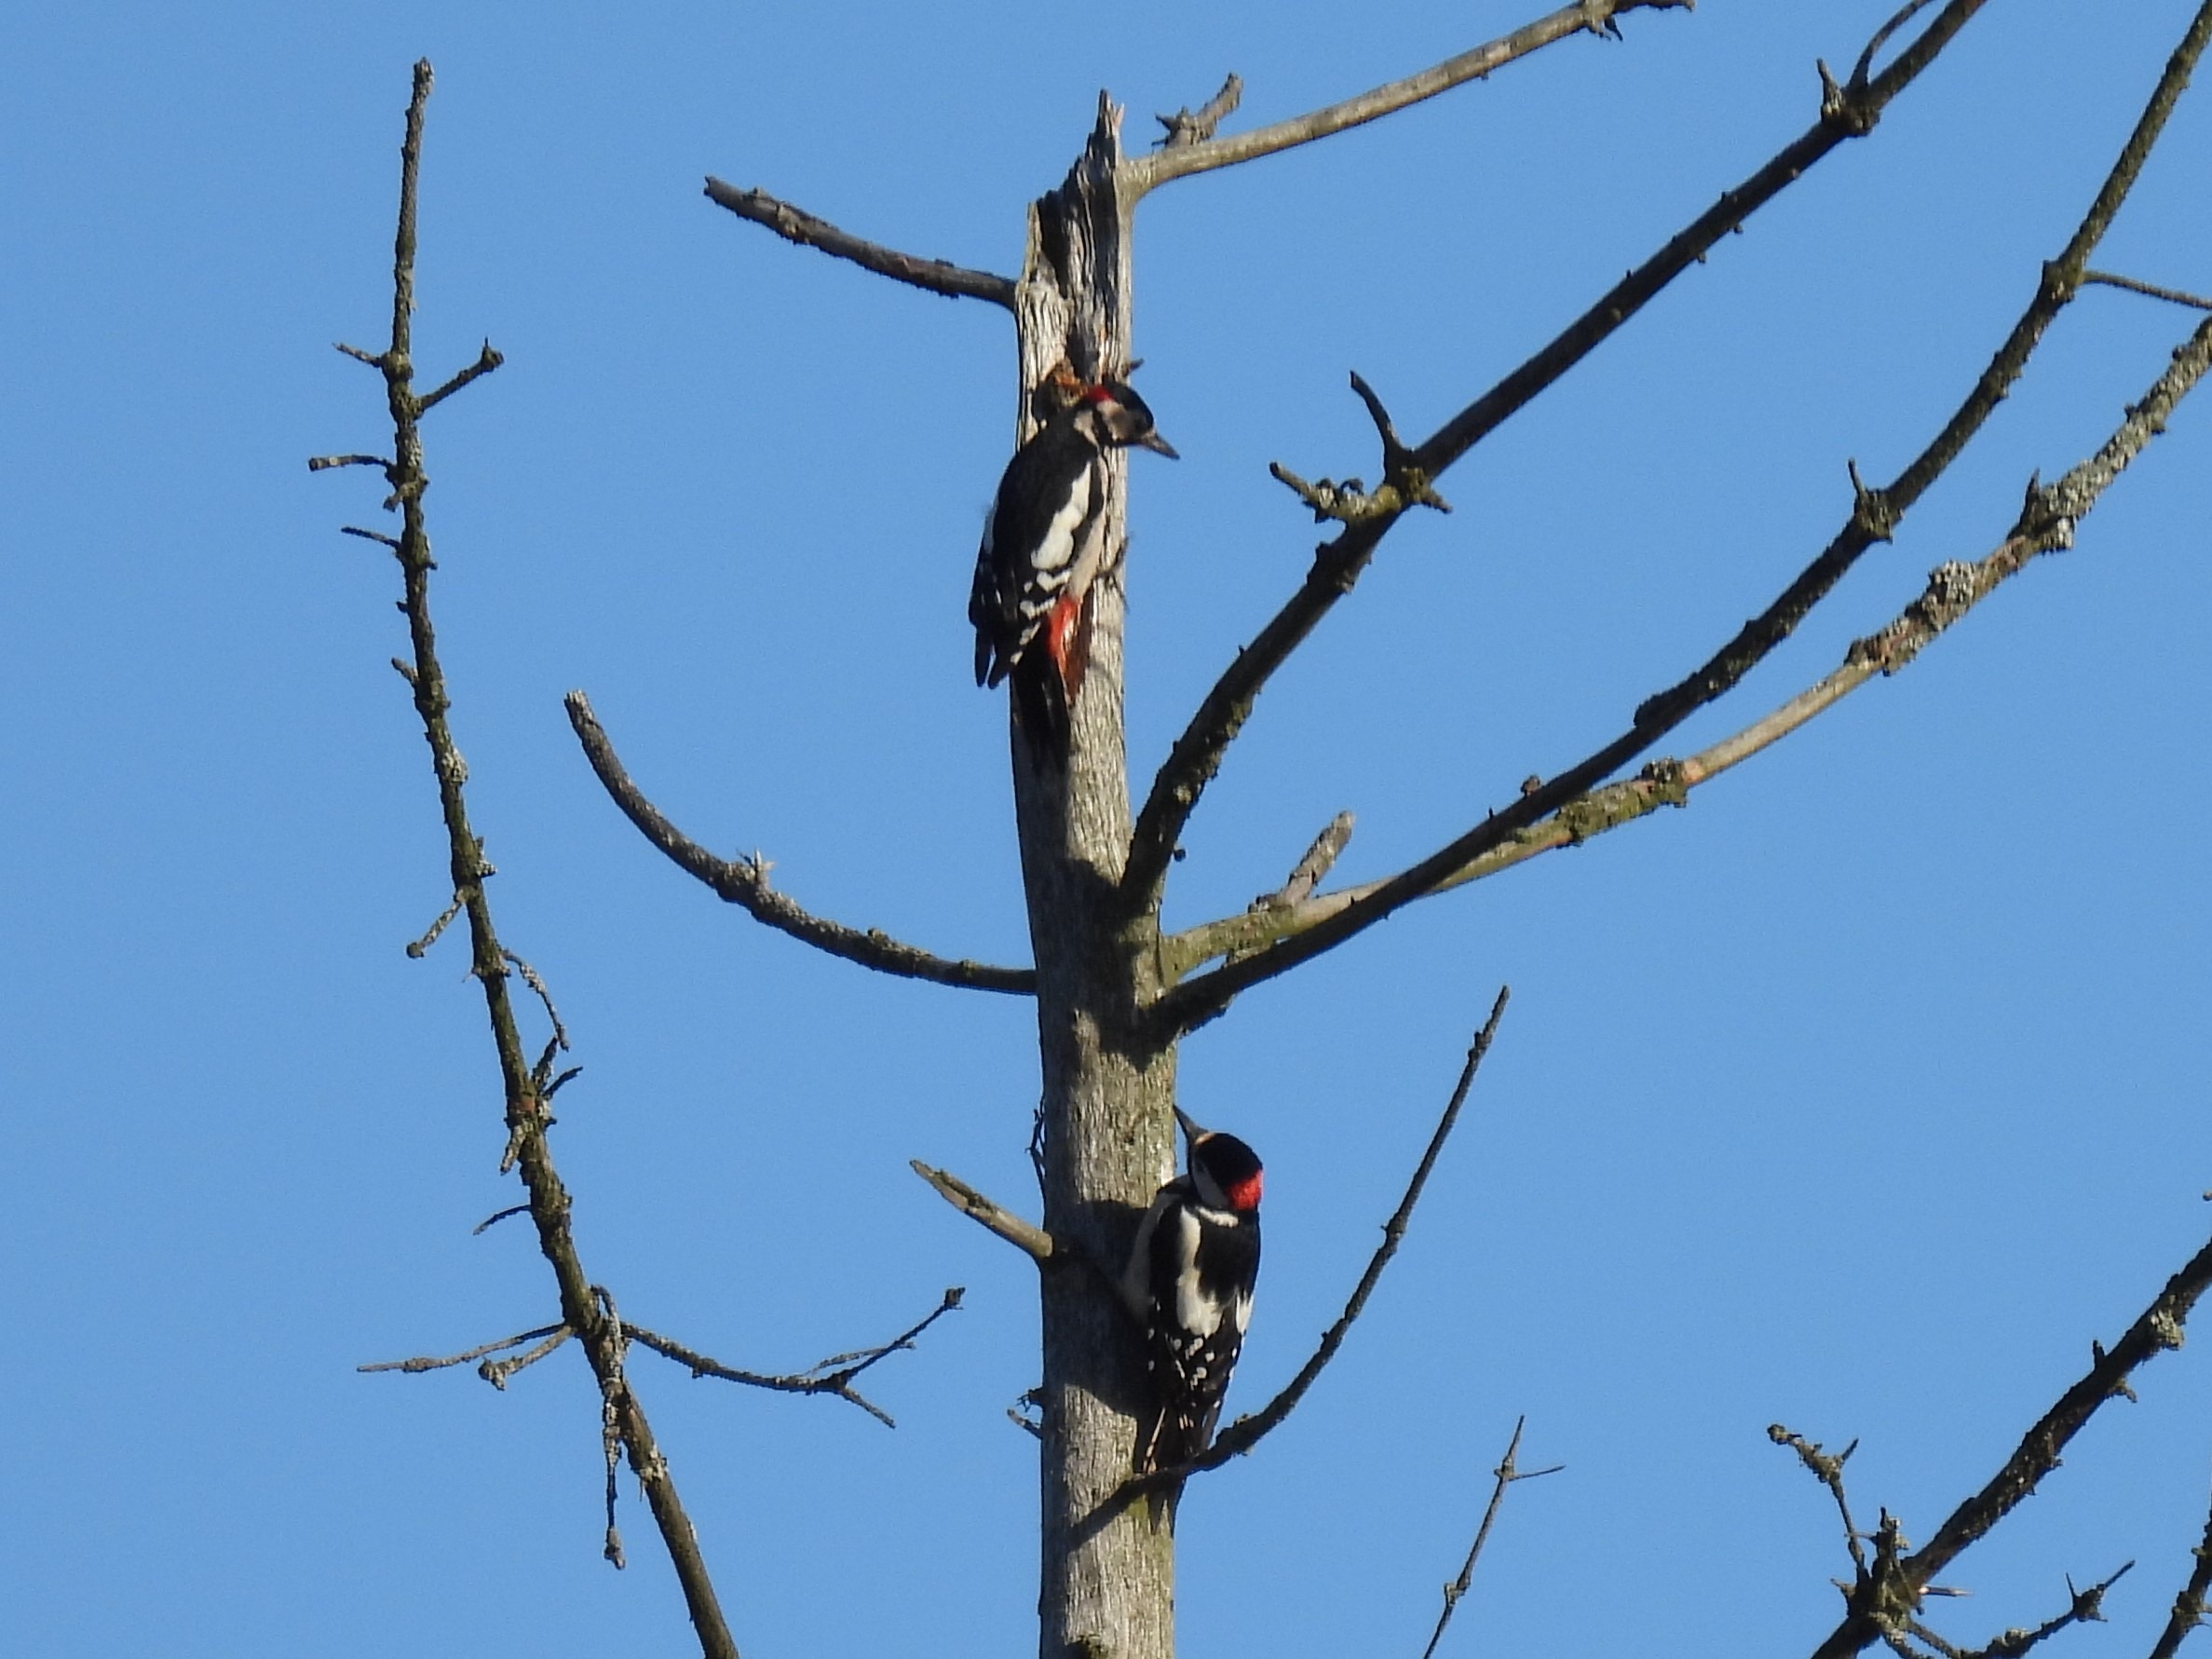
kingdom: Animalia
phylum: Chordata
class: Aves
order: Piciformes
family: Picidae
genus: Dendrocopos
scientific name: Dendrocopos major
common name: Stor flagspætte
